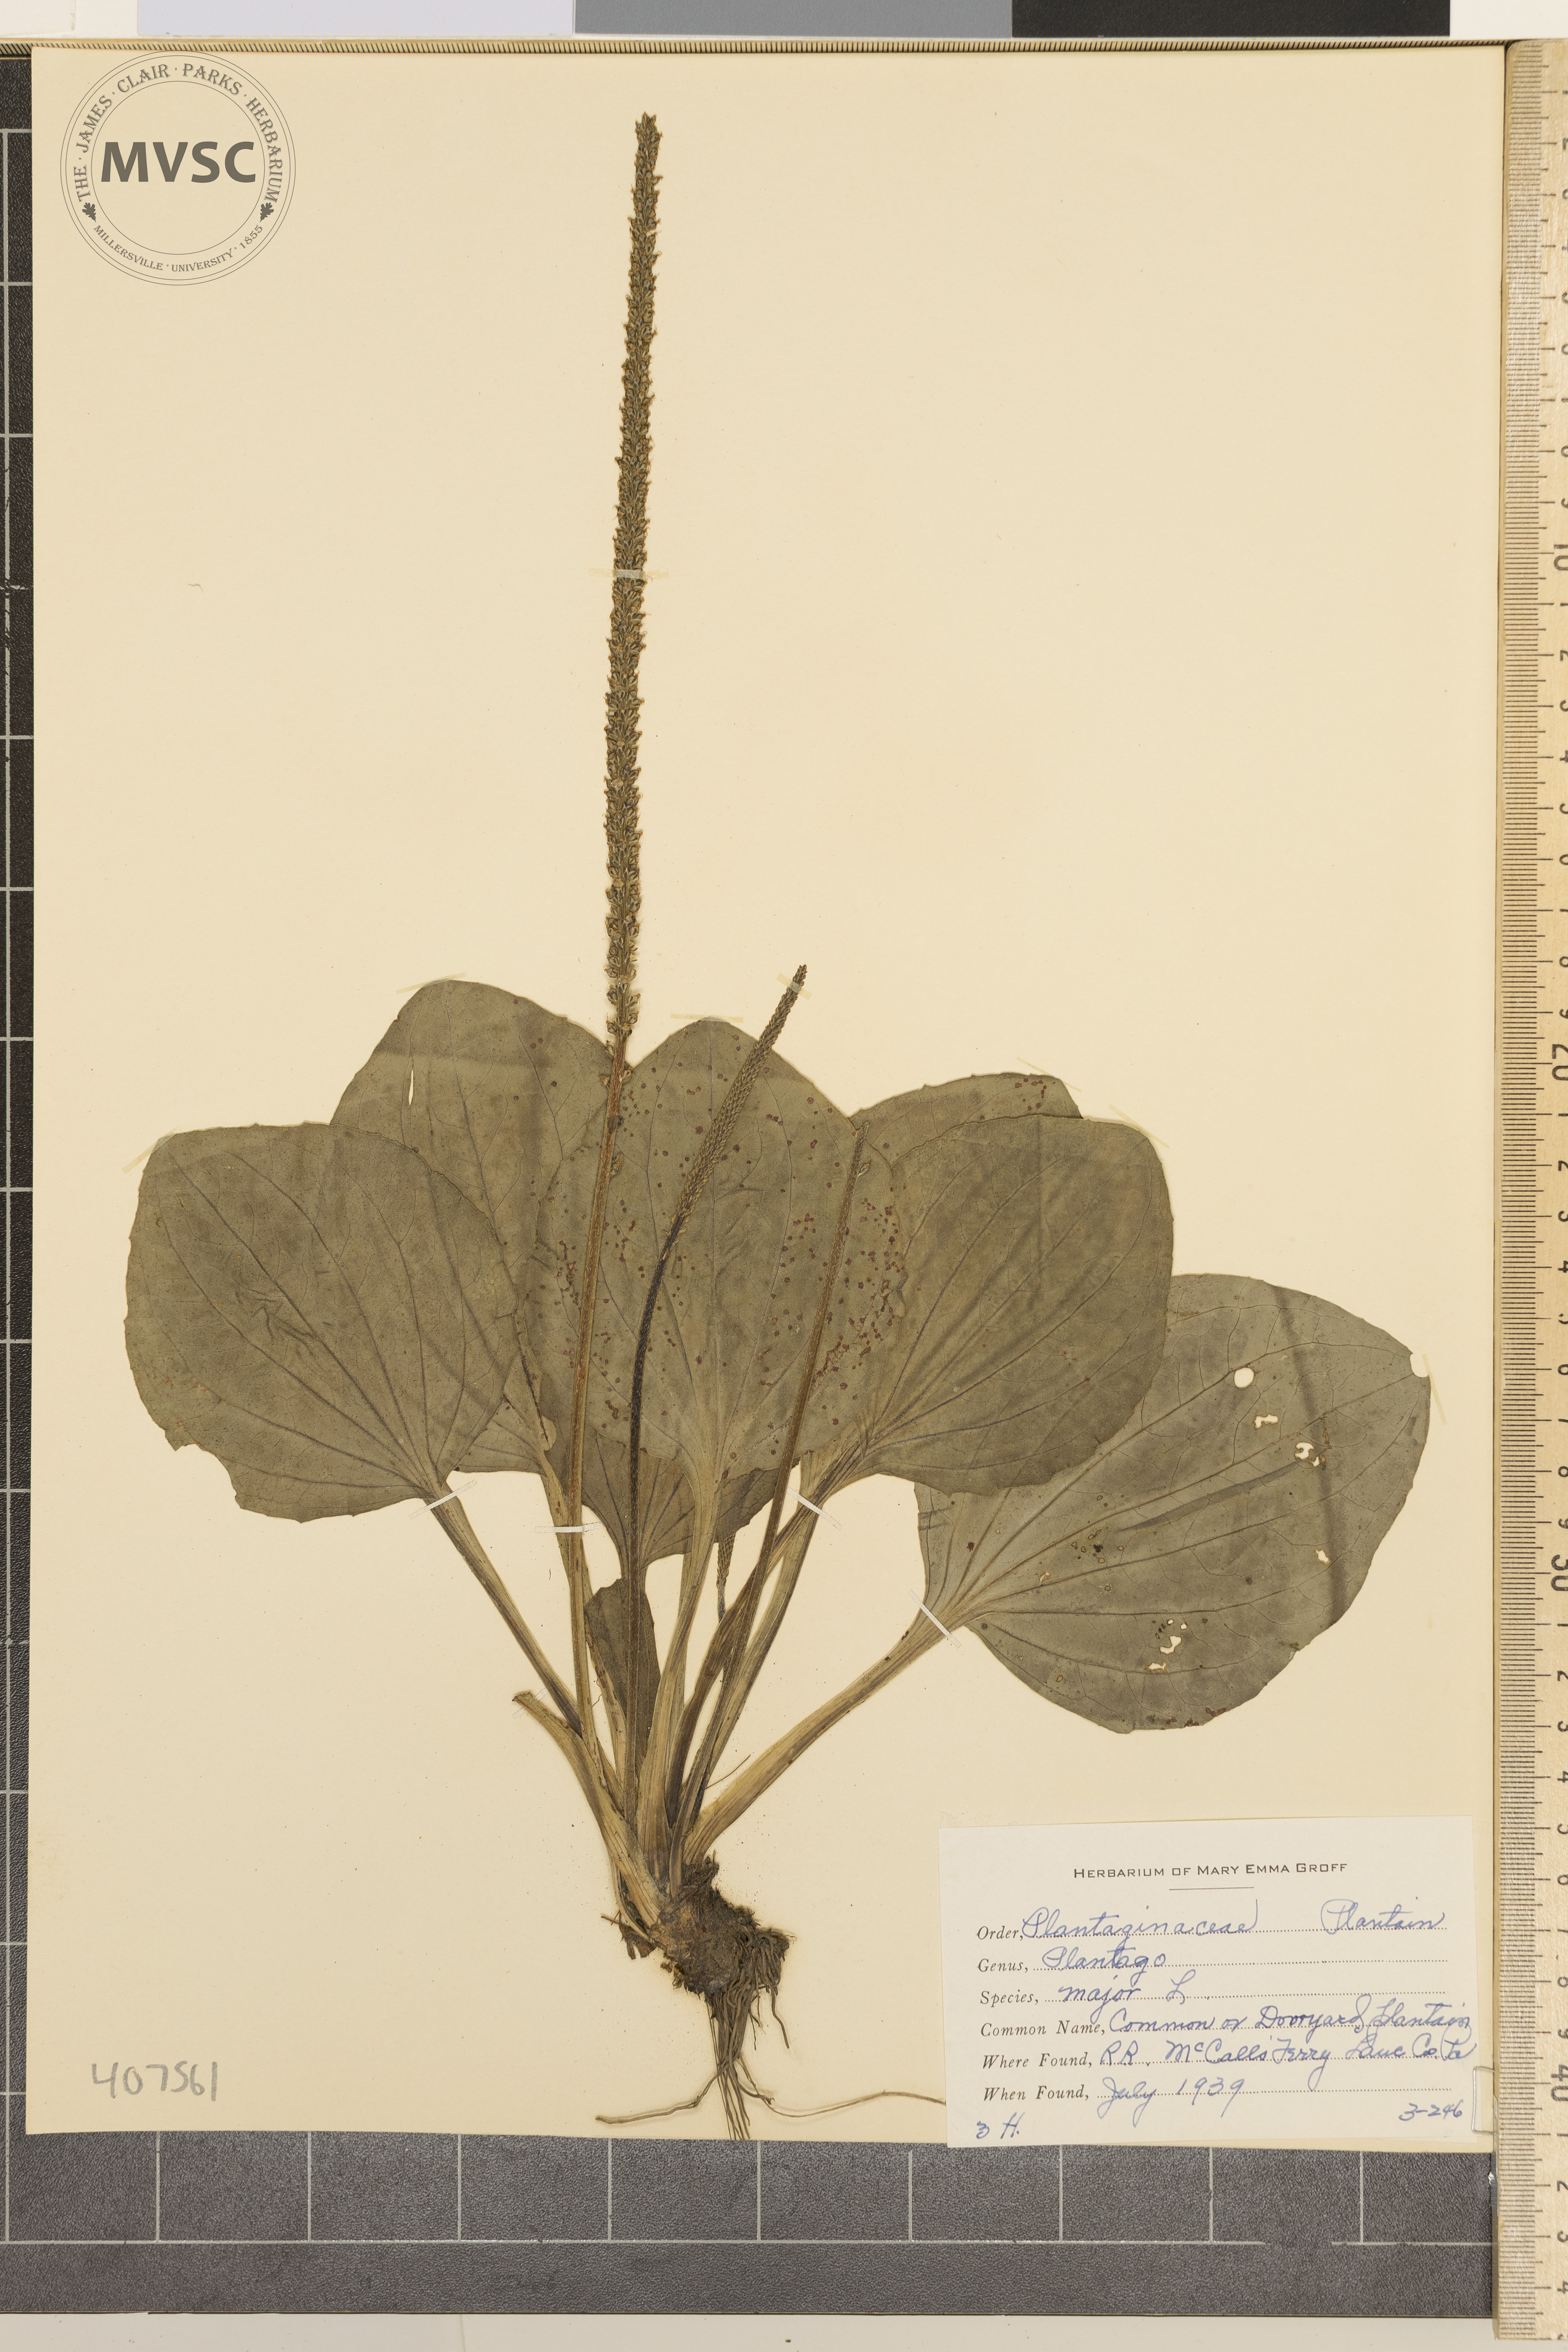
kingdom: Plantae
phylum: Tracheophyta
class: Magnoliopsida
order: Lamiales
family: Plantaginaceae
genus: Plantago
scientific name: Plantago major
